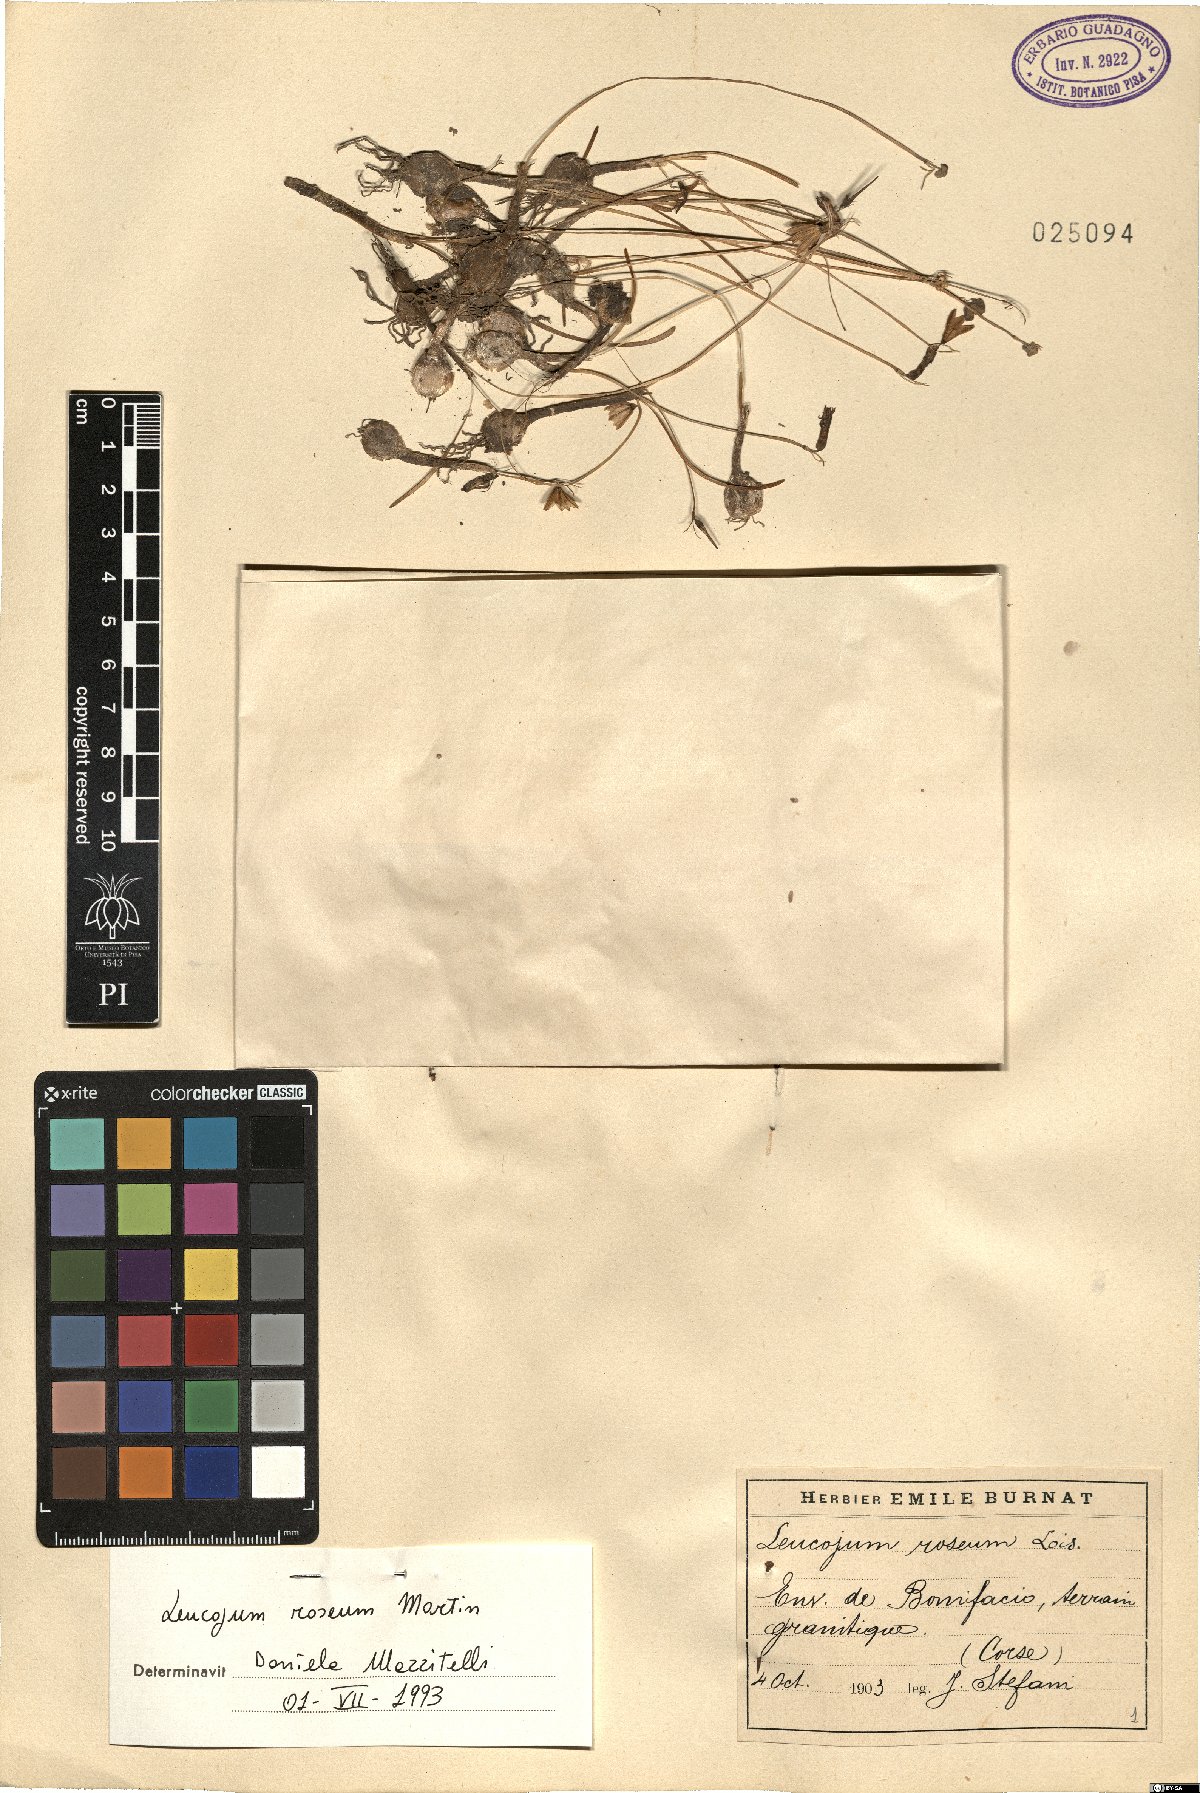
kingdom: Plantae
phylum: Tracheophyta
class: Liliopsida
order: Asparagales
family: Amaryllidaceae
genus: Acis
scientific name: Acis rosea
